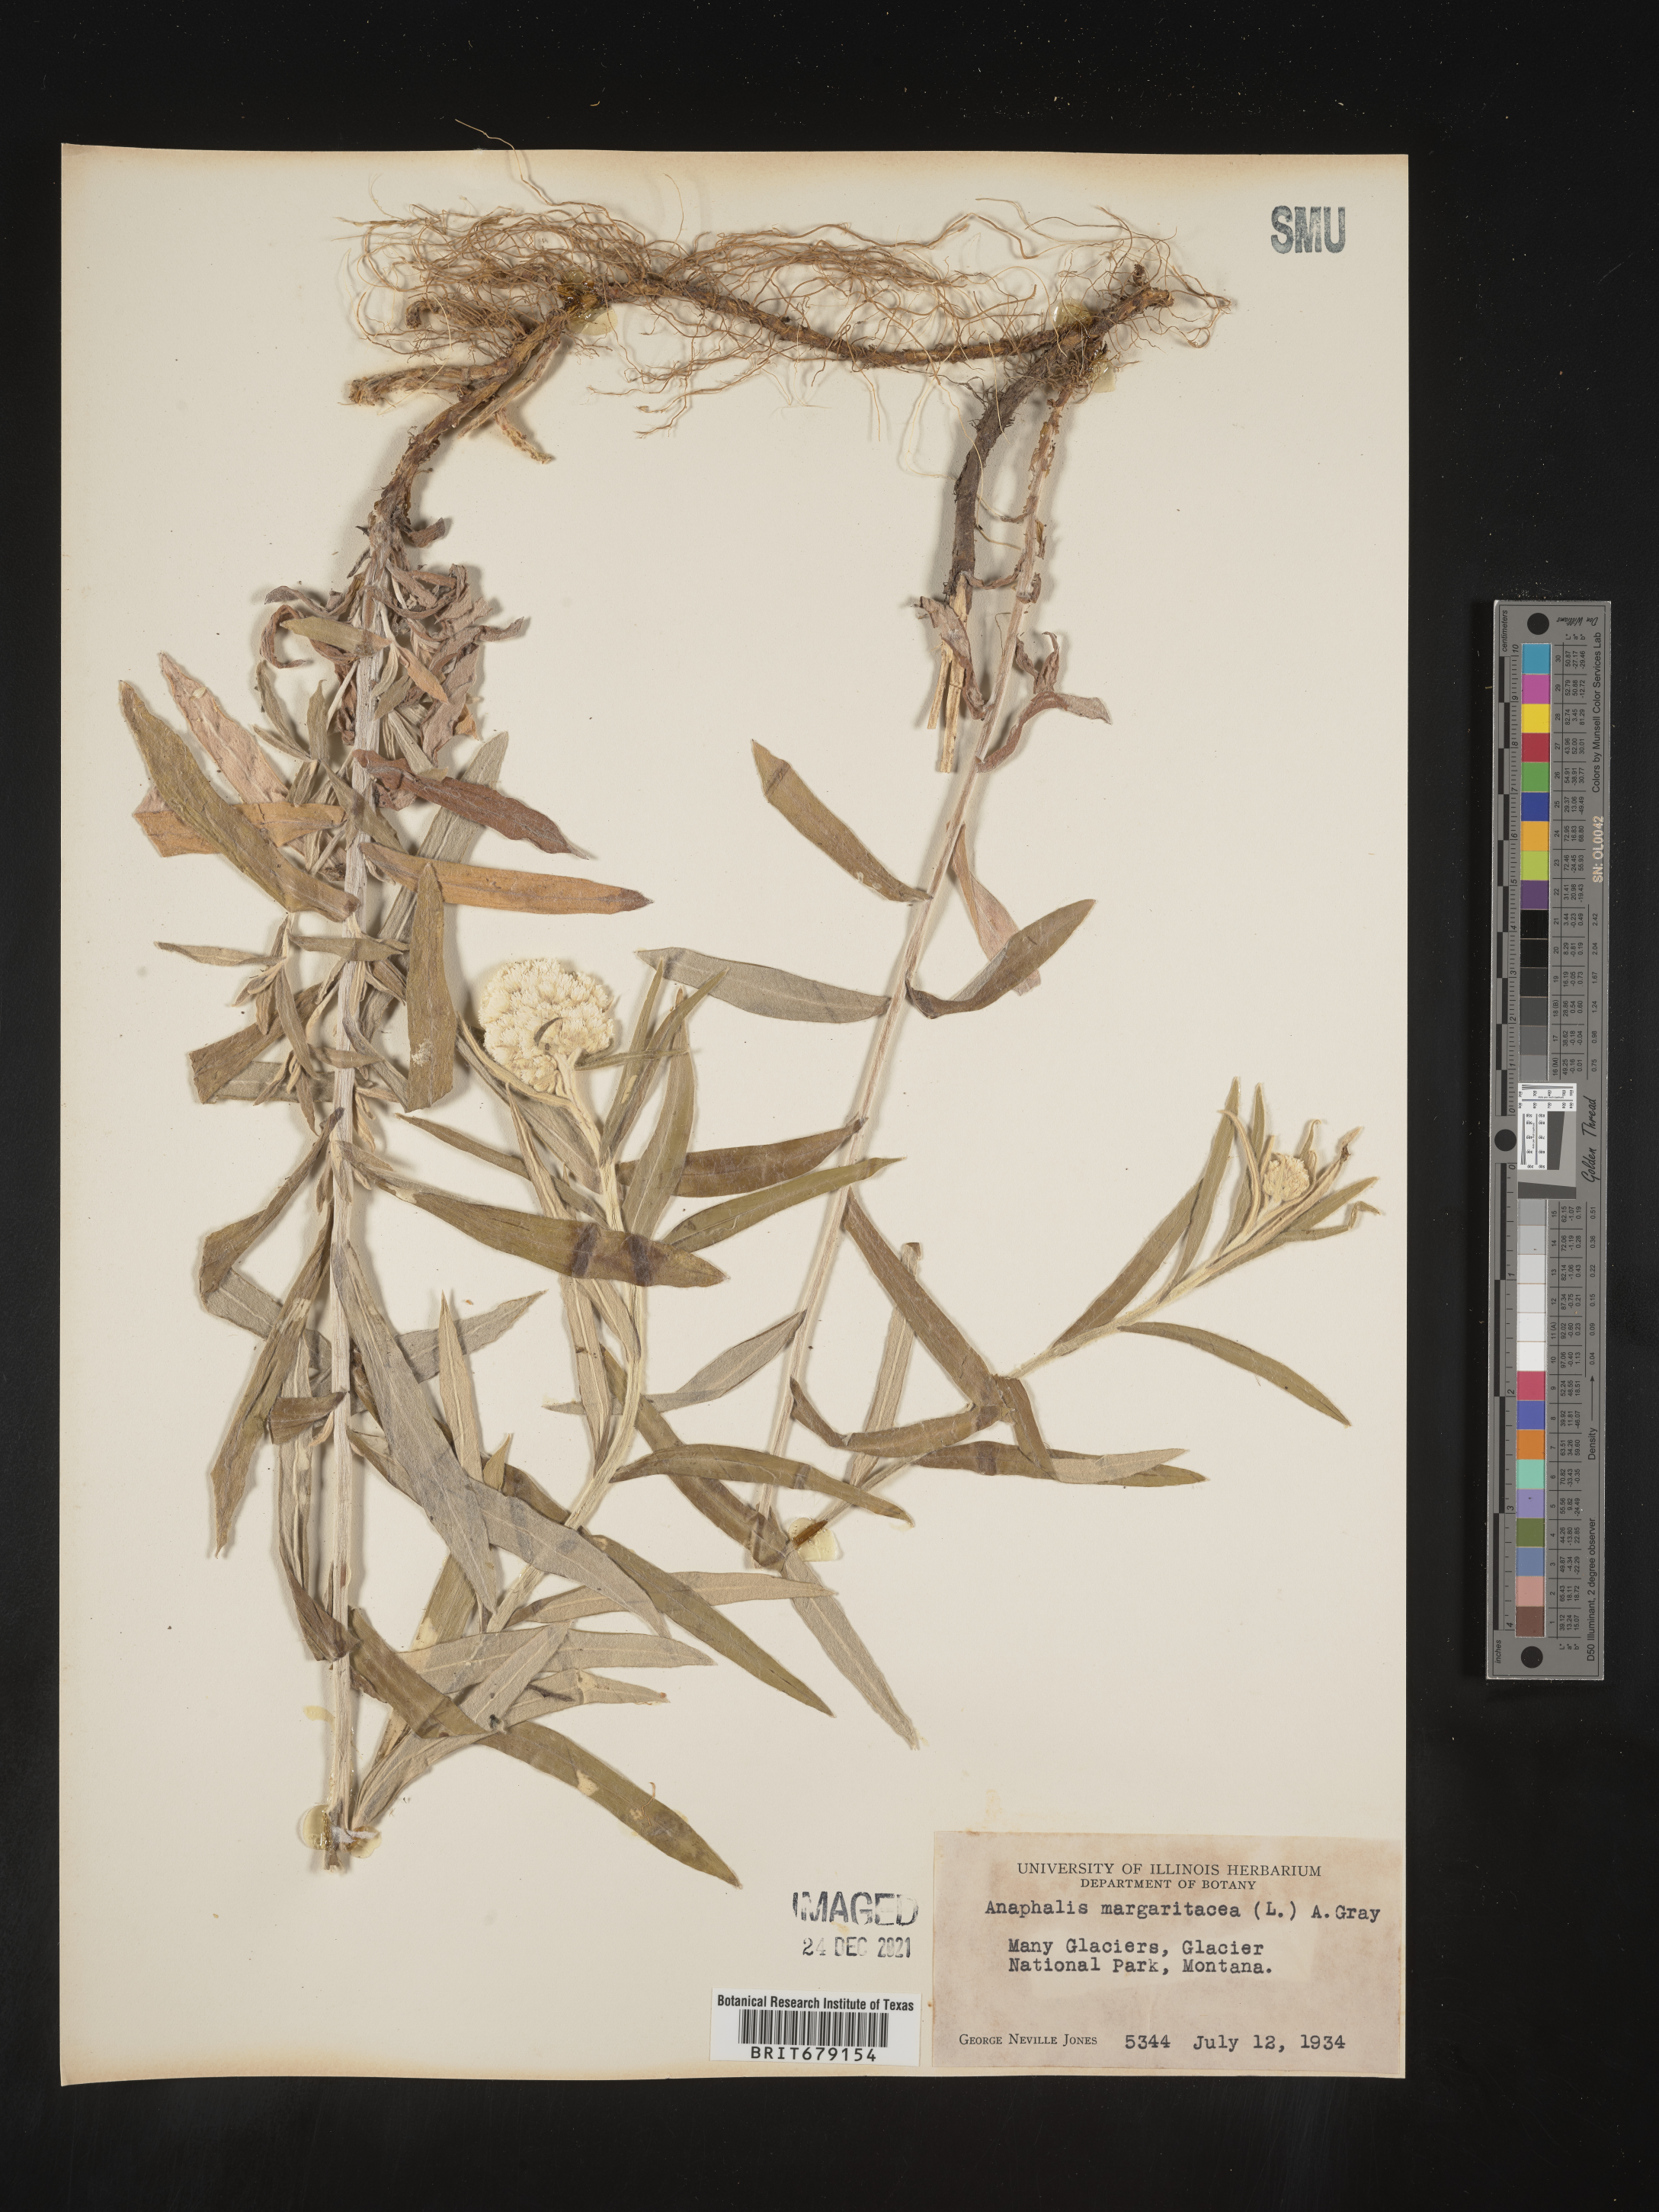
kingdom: Plantae
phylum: Tracheophyta
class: Magnoliopsida
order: Asterales
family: Asteraceae
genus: Anaphalis
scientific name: Anaphalis margaritacea
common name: Pearly everlasting
